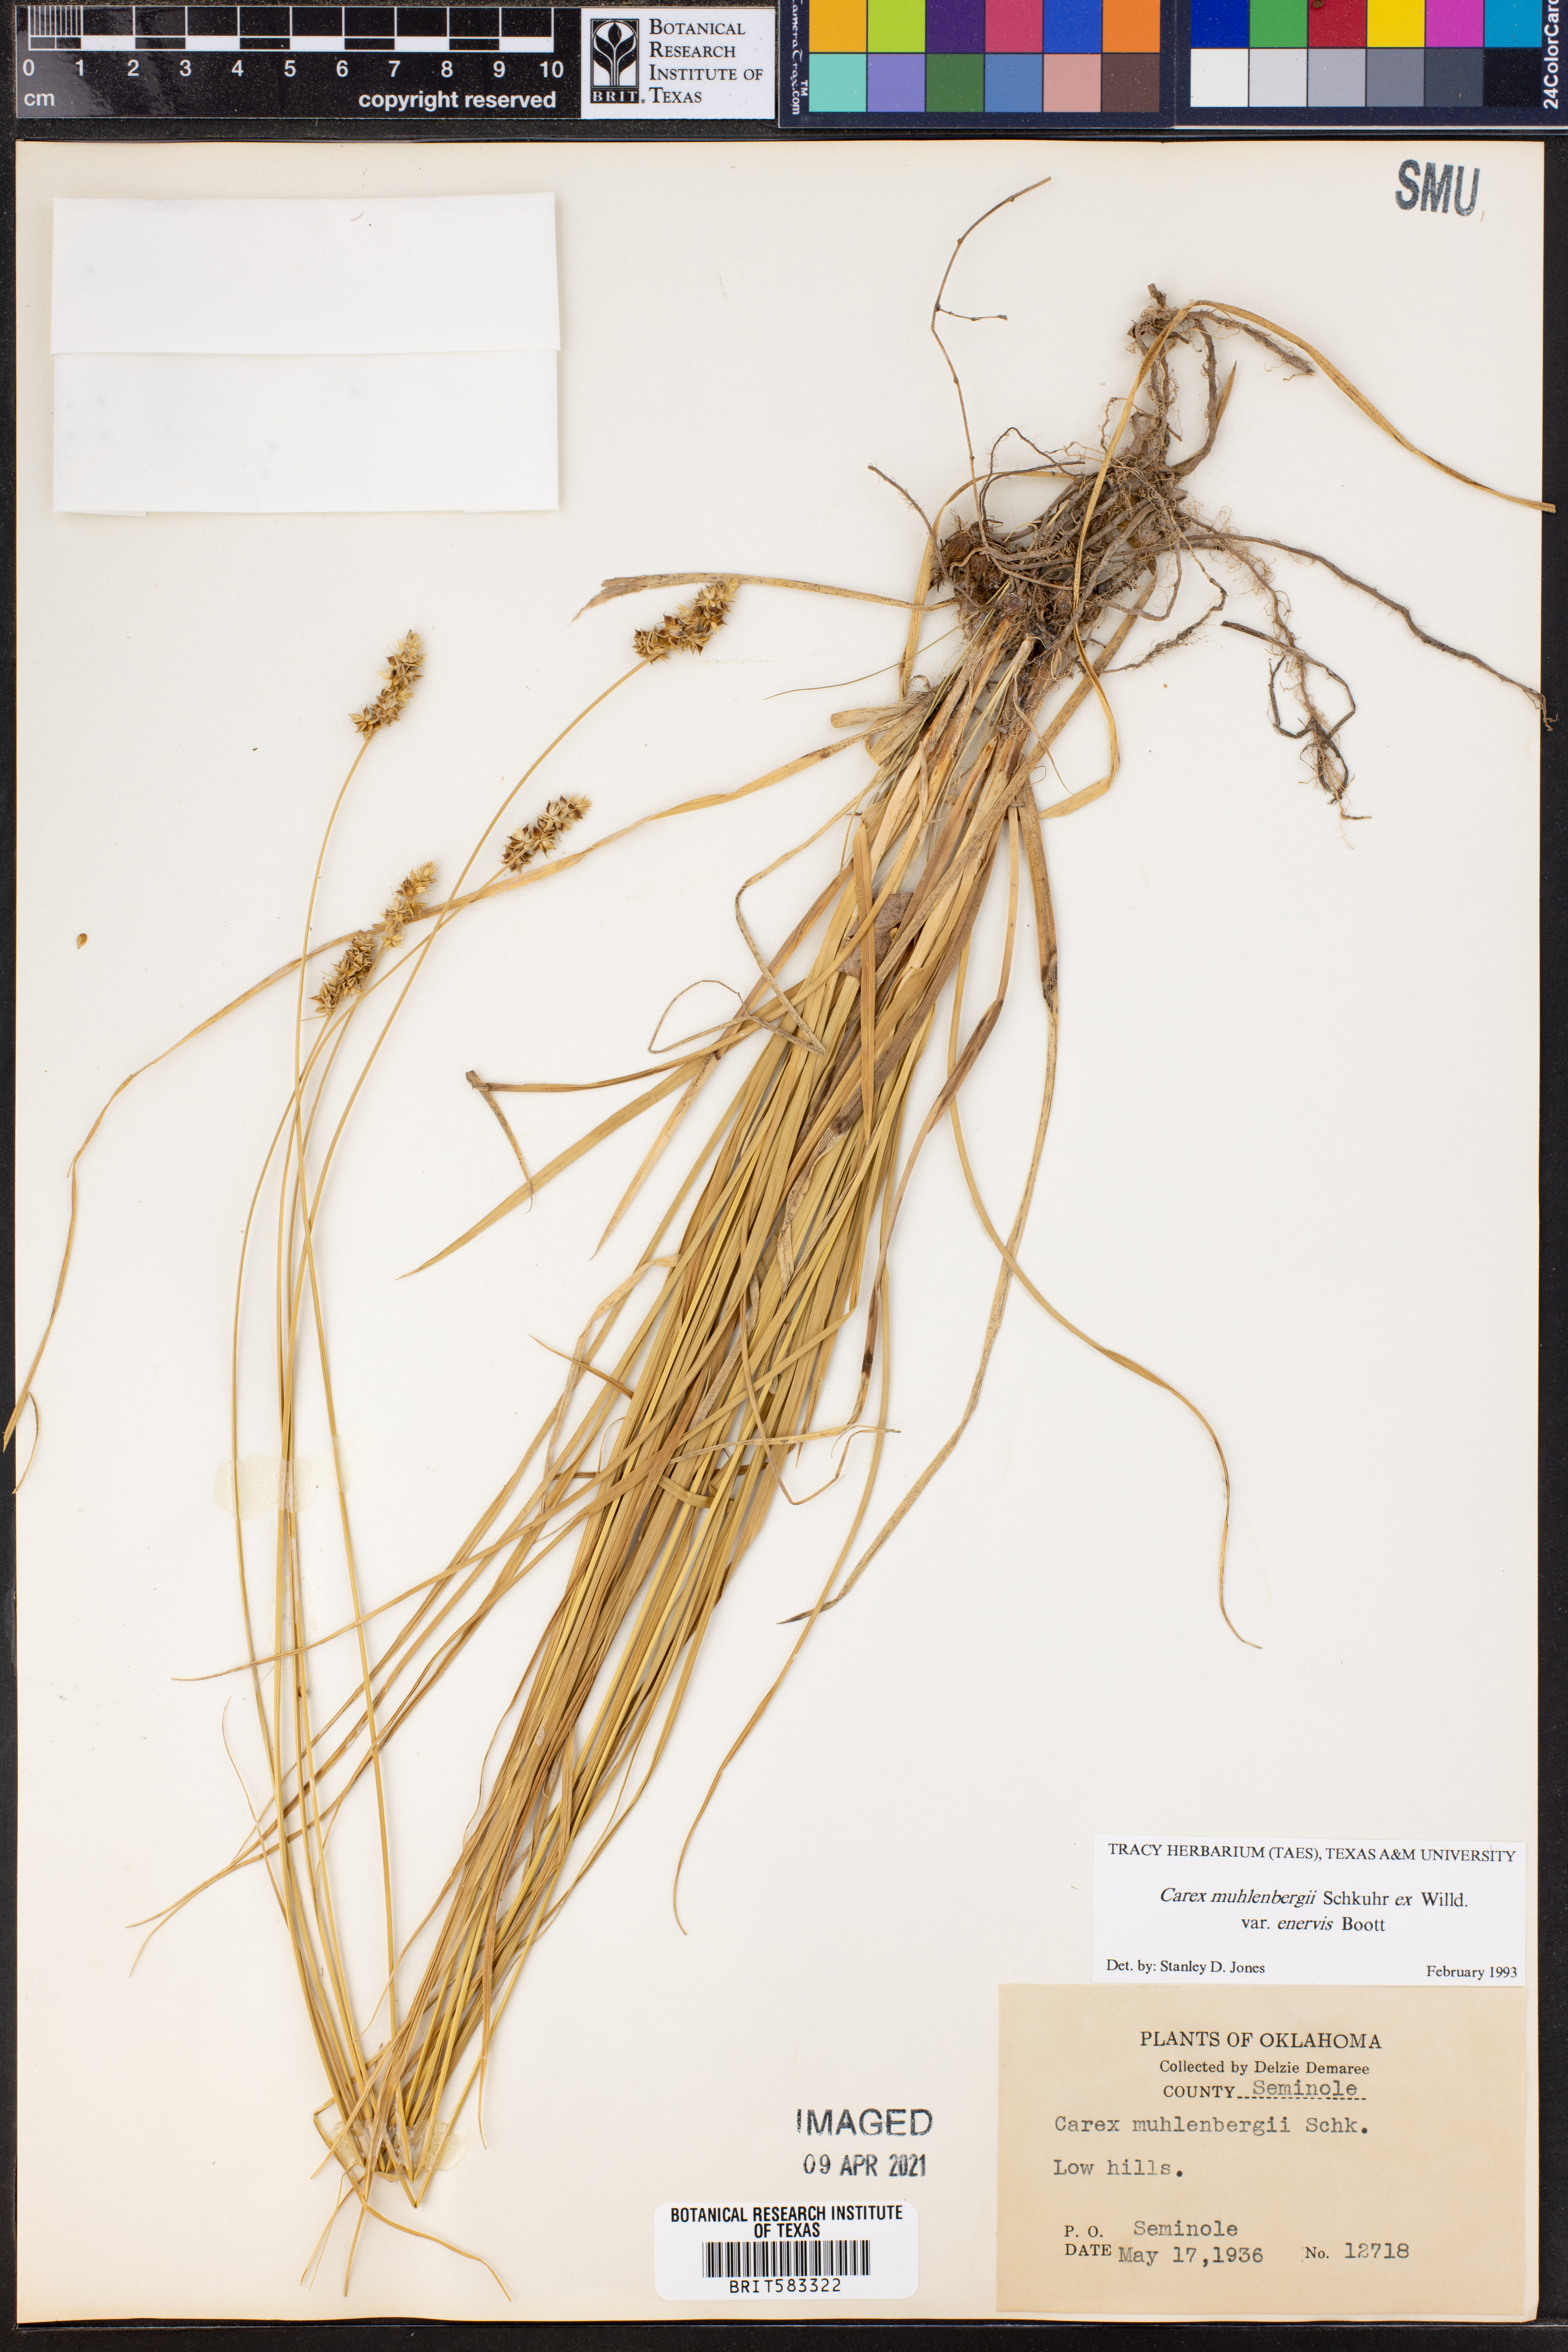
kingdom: Plantae
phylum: Tracheophyta
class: Liliopsida
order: Poales
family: Cyperaceae
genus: Carex
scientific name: Carex vulpinoidea
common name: American fox-sedge
